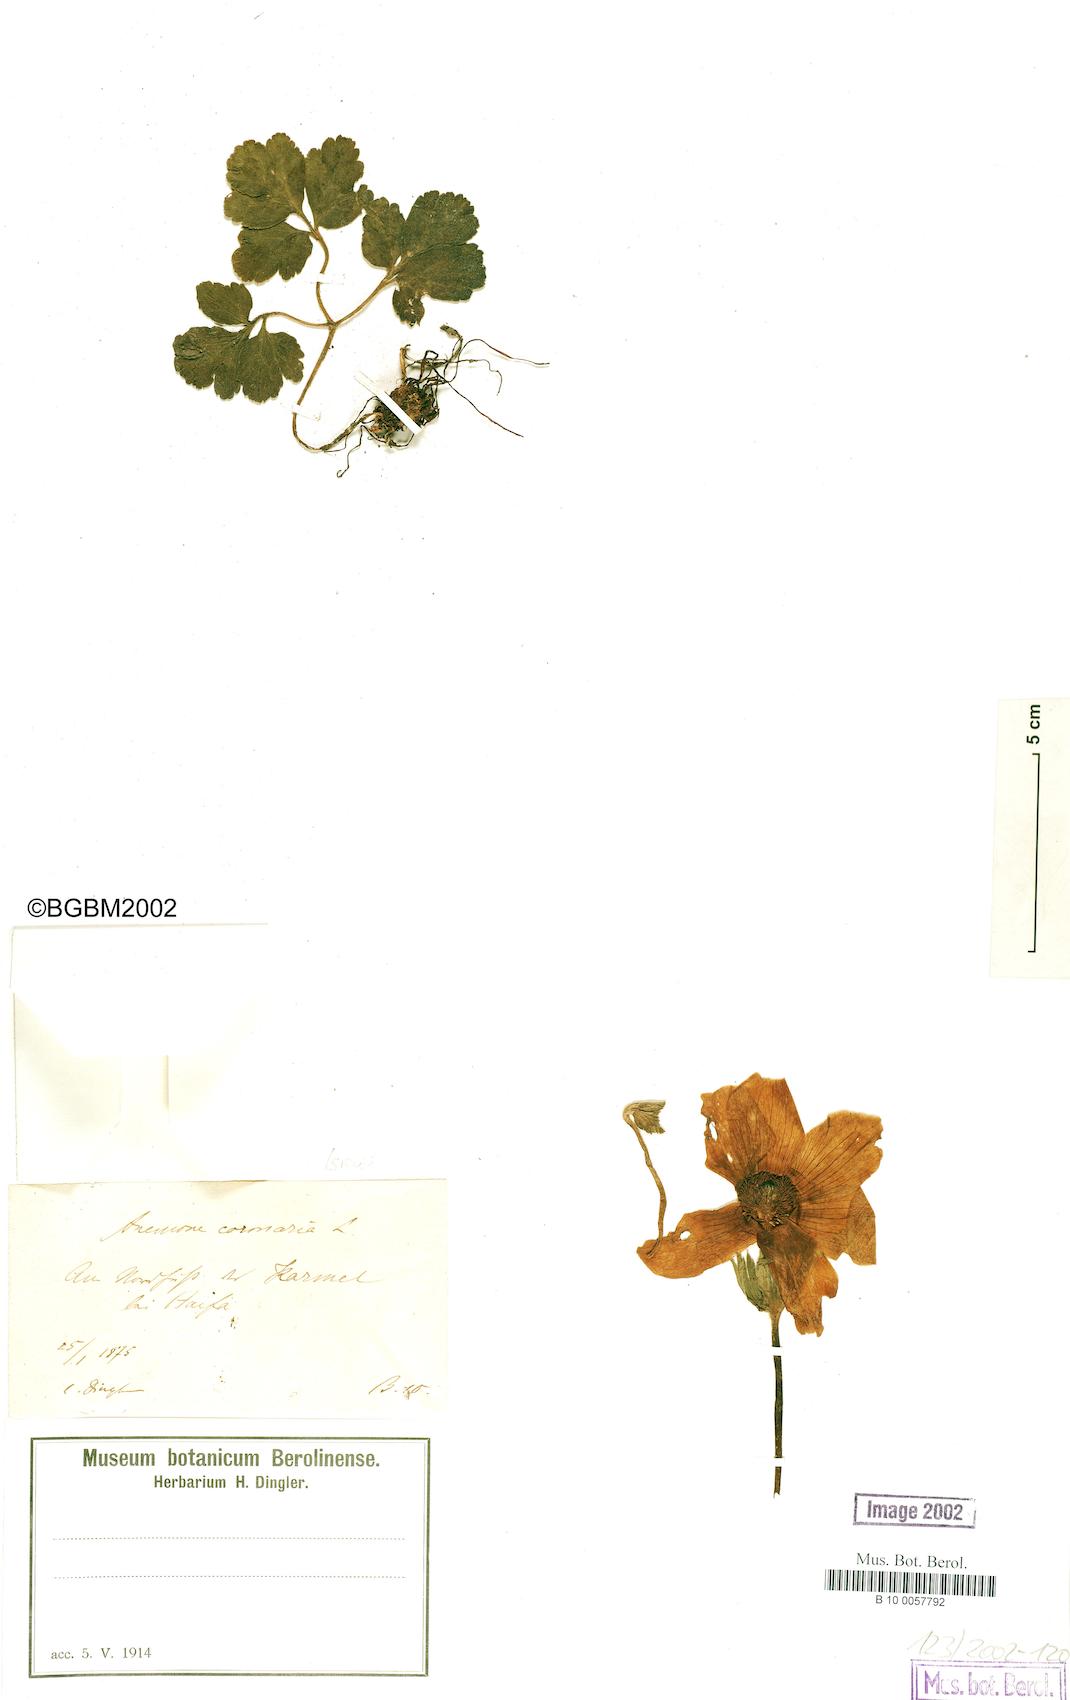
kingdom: Plantae
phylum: Tracheophyta
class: Magnoliopsida
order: Ranunculales
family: Ranunculaceae
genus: Anemone
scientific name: Anemone coronaria
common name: Poppy anemone
